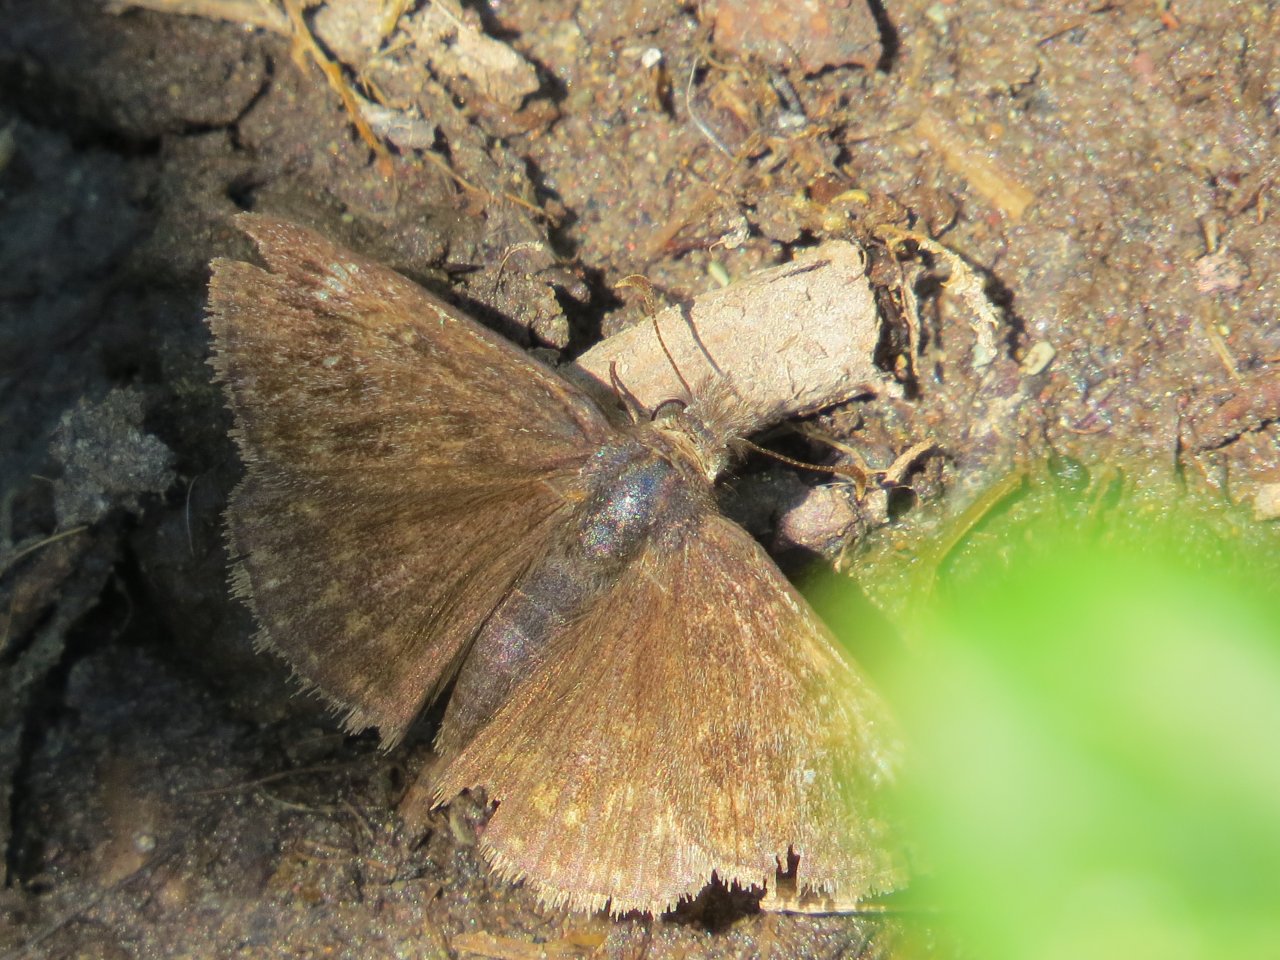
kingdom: Animalia
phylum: Arthropoda
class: Insecta
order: Lepidoptera
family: Hesperiidae
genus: Gesta
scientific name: Gesta
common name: Persius Duskywing
